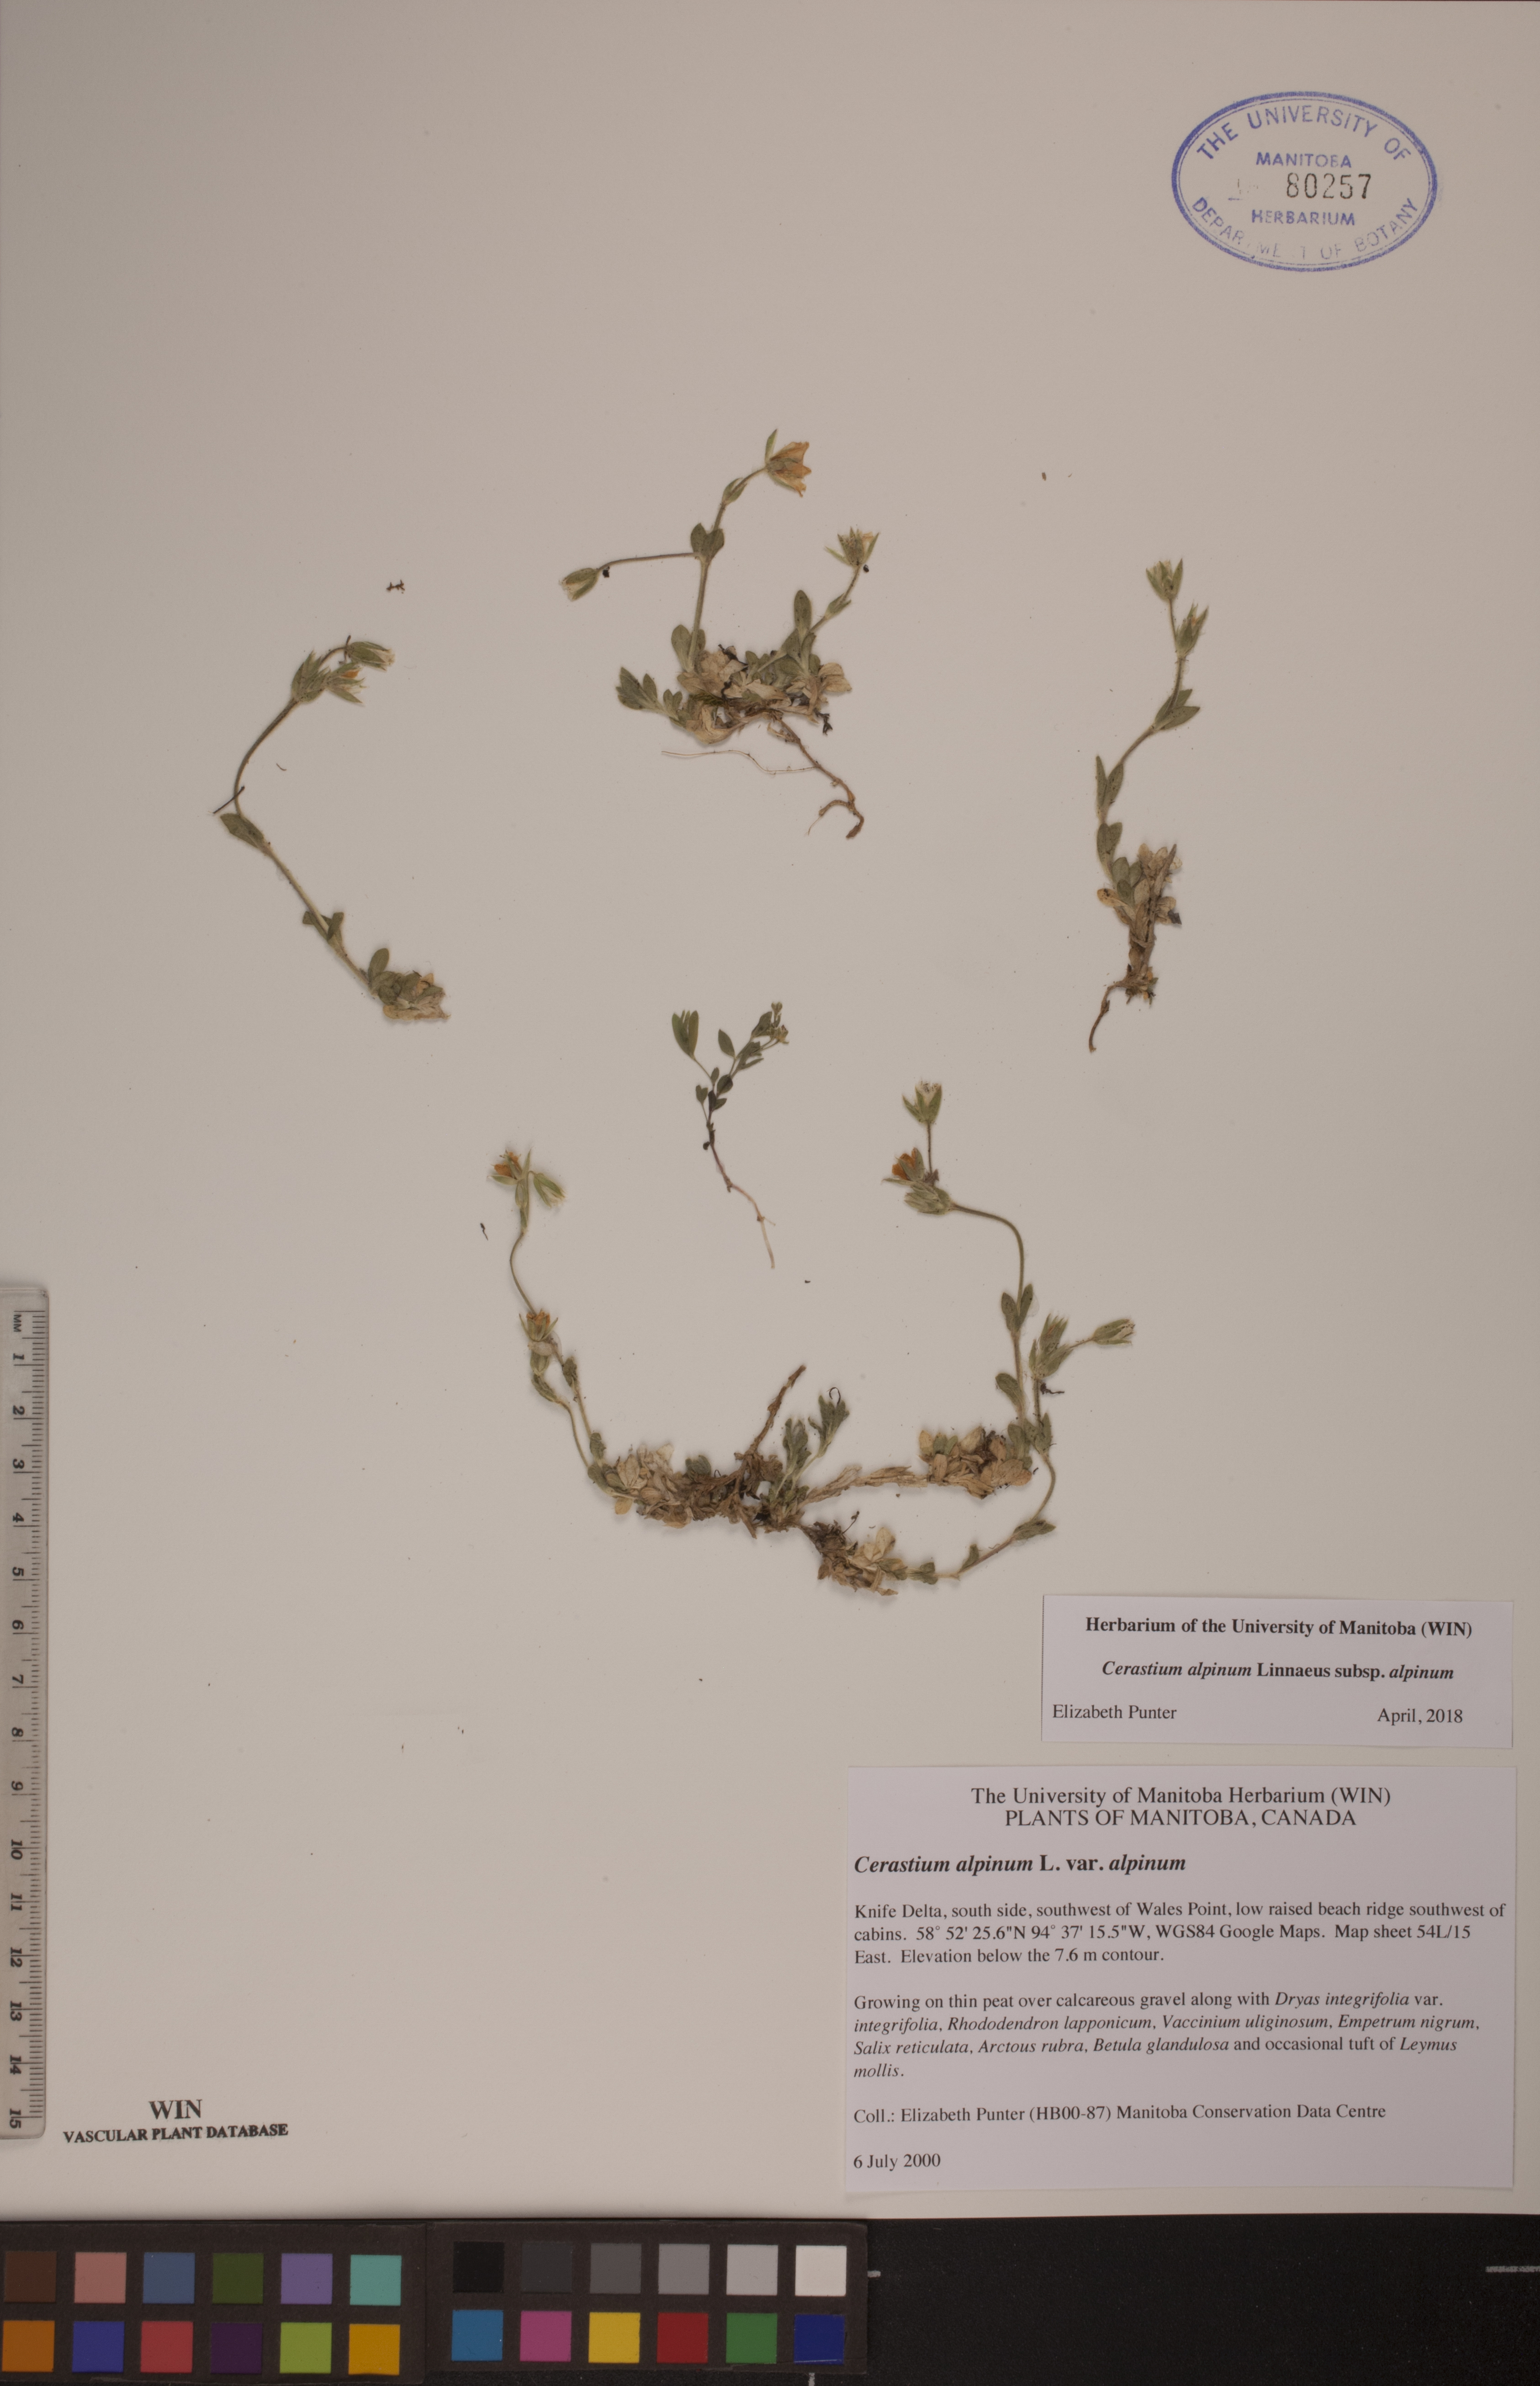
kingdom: Plantae
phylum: Tracheophyta
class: Magnoliopsida
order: Caryophyllales
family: Caryophyllaceae
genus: Cerastium
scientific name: Cerastium alpinum
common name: Alpine mouse-ear
